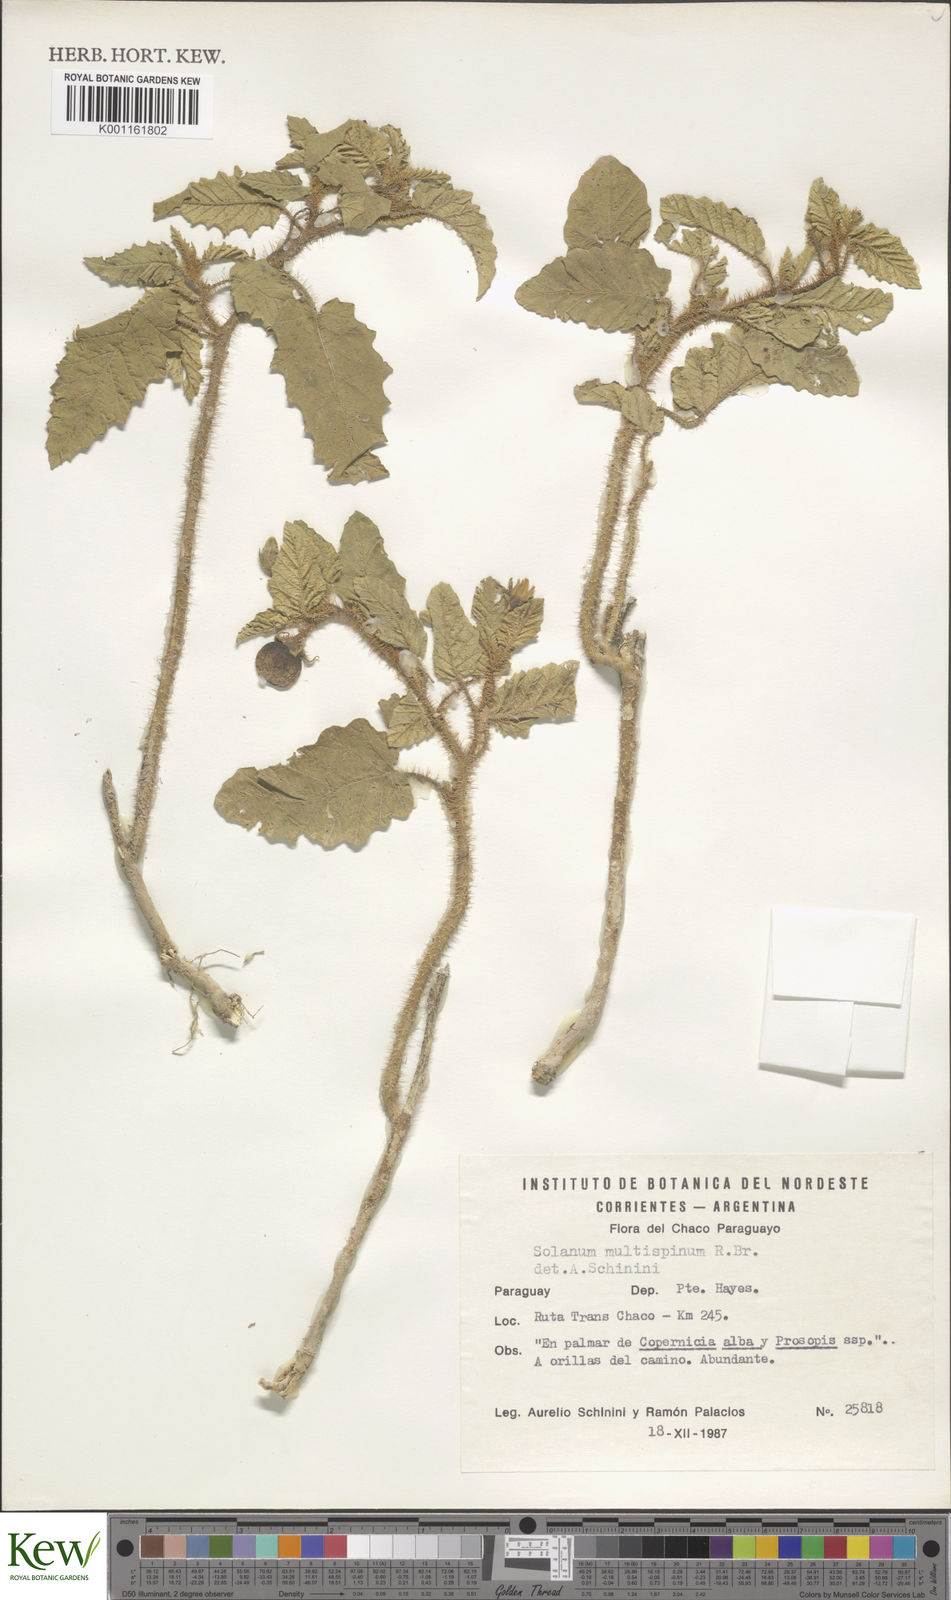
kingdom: Plantae
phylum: Tracheophyta
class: Magnoliopsida
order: Solanales
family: Solanaceae
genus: Solanum
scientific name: Solanum multispinum
